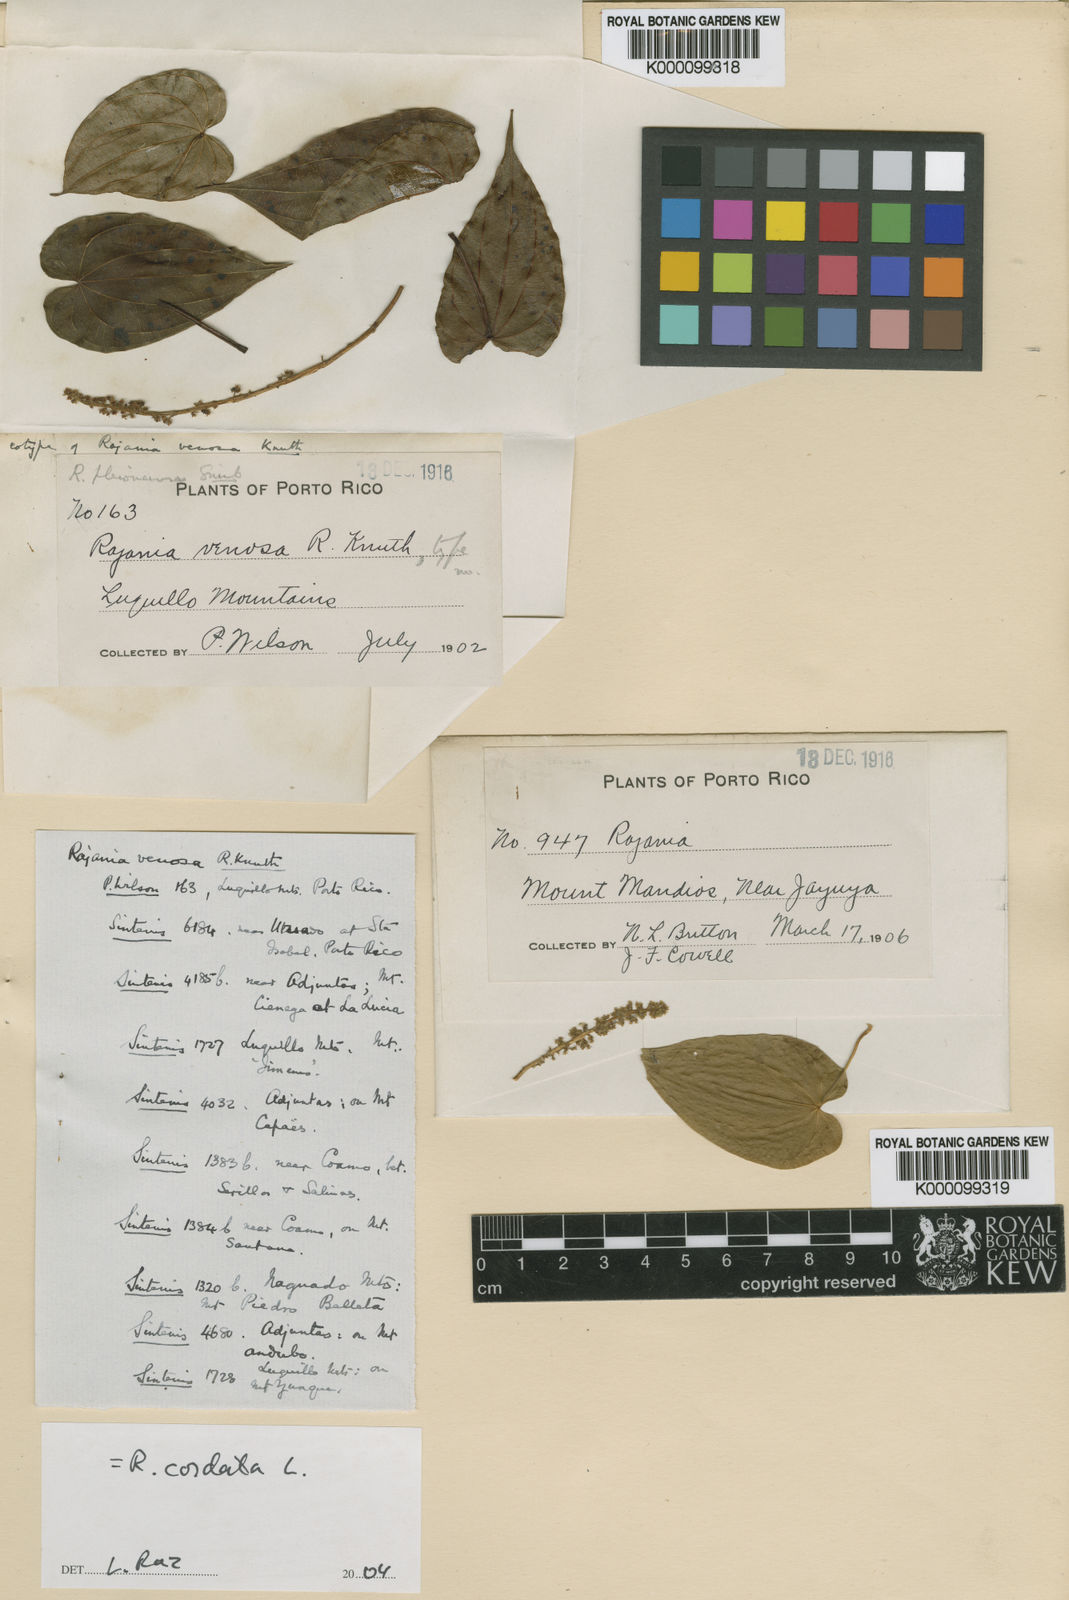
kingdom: Plantae
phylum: Tracheophyta
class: Liliopsida
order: Dioscoreales
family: Dioscoreaceae
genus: Dioscorea
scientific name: Dioscorea fodinarum
